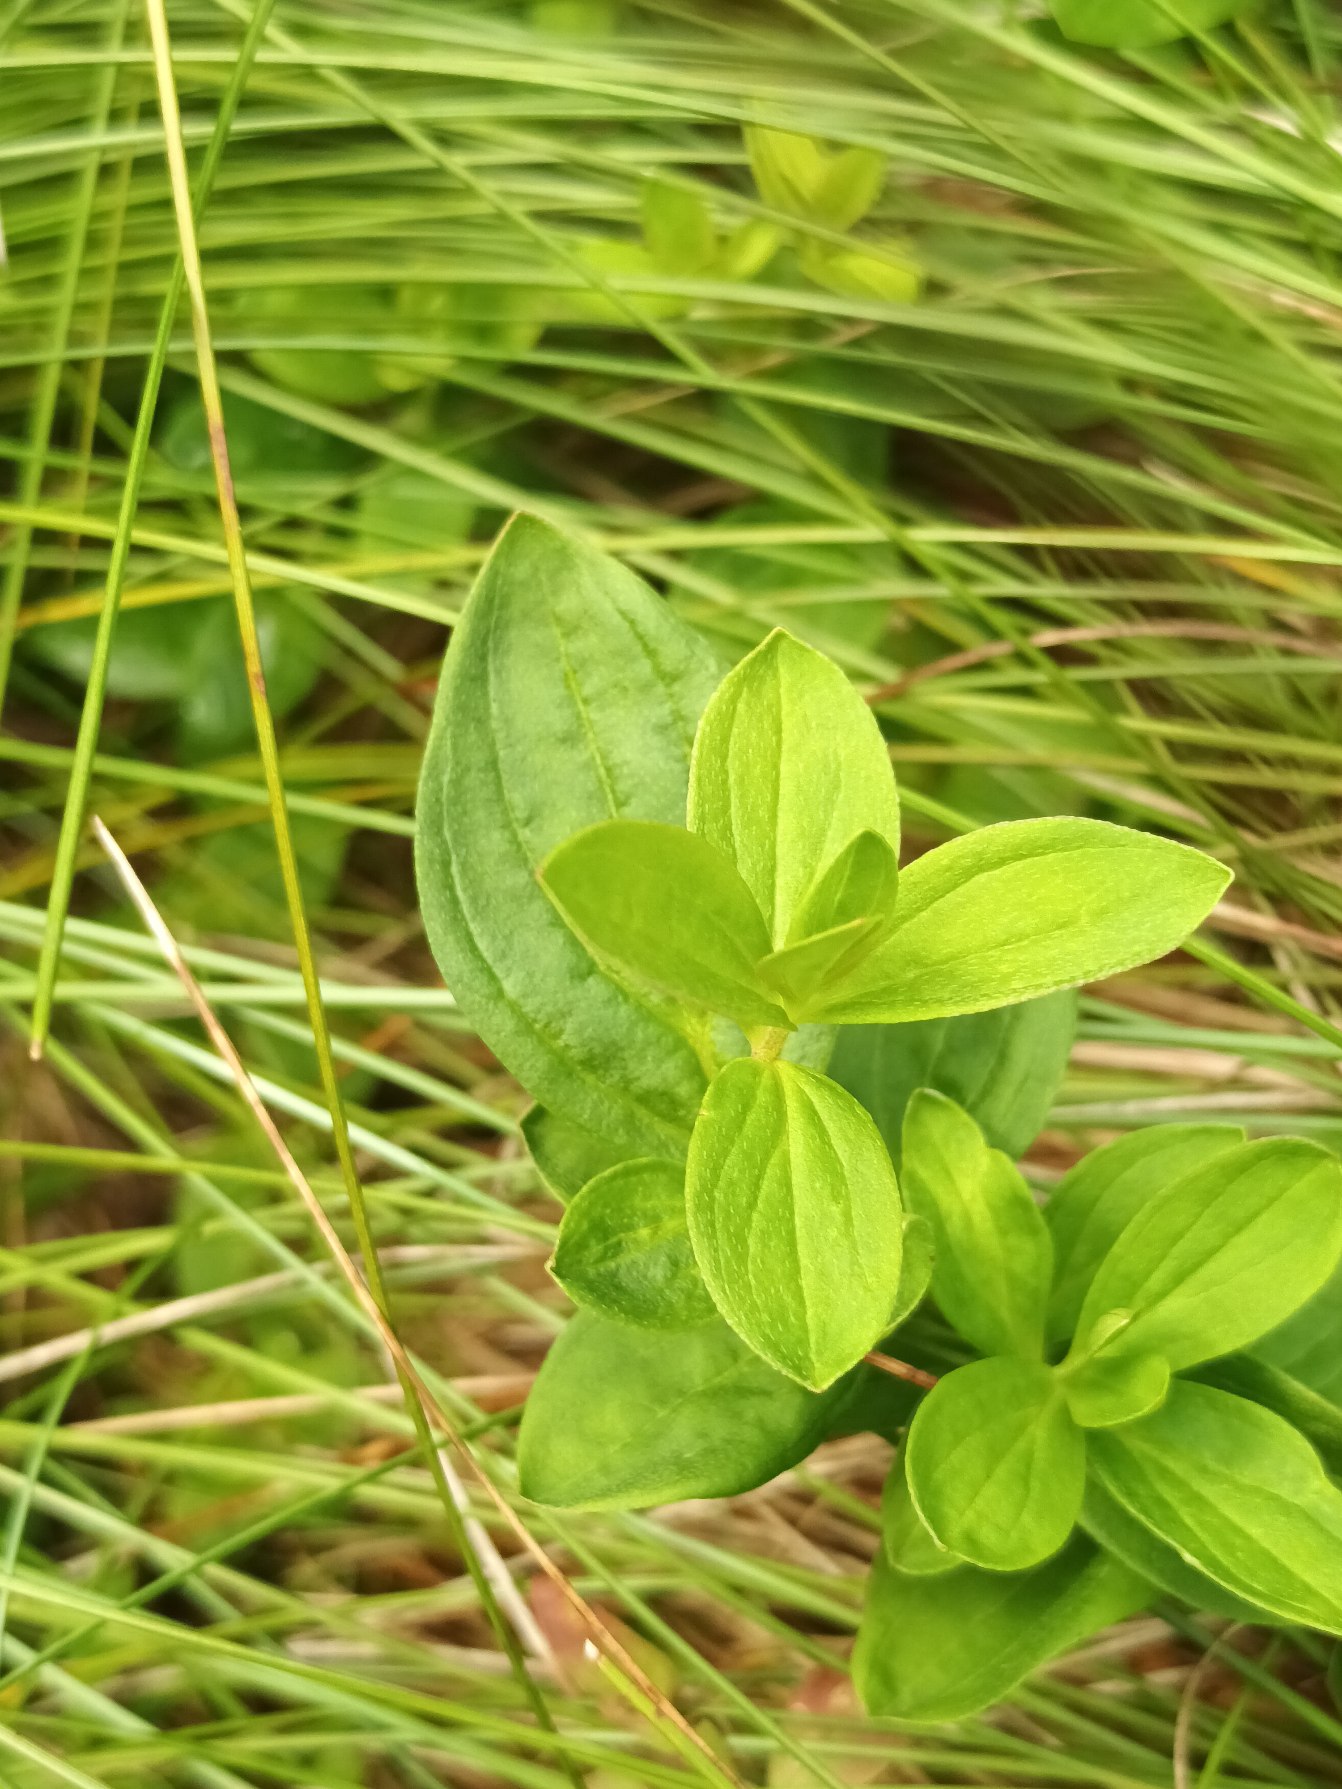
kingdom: Plantae
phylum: Tracheophyta
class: Magnoliopsida
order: Cornales
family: Cornaceae
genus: Cornus
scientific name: Cornus suecica
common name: Hønsebær
